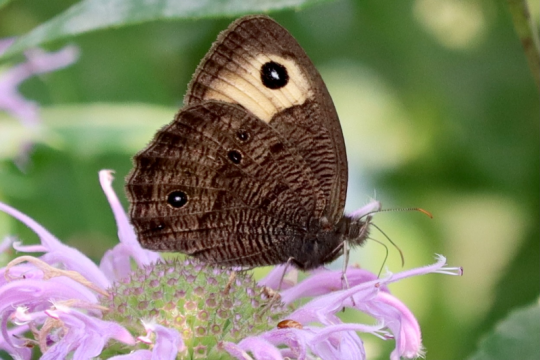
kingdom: Animalia
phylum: Arthropoda
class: Insecta
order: Lepidoptera
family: Nymphalidae
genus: Cercyonis
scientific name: Cercyonis pegala
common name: Common Wood-Nymph
